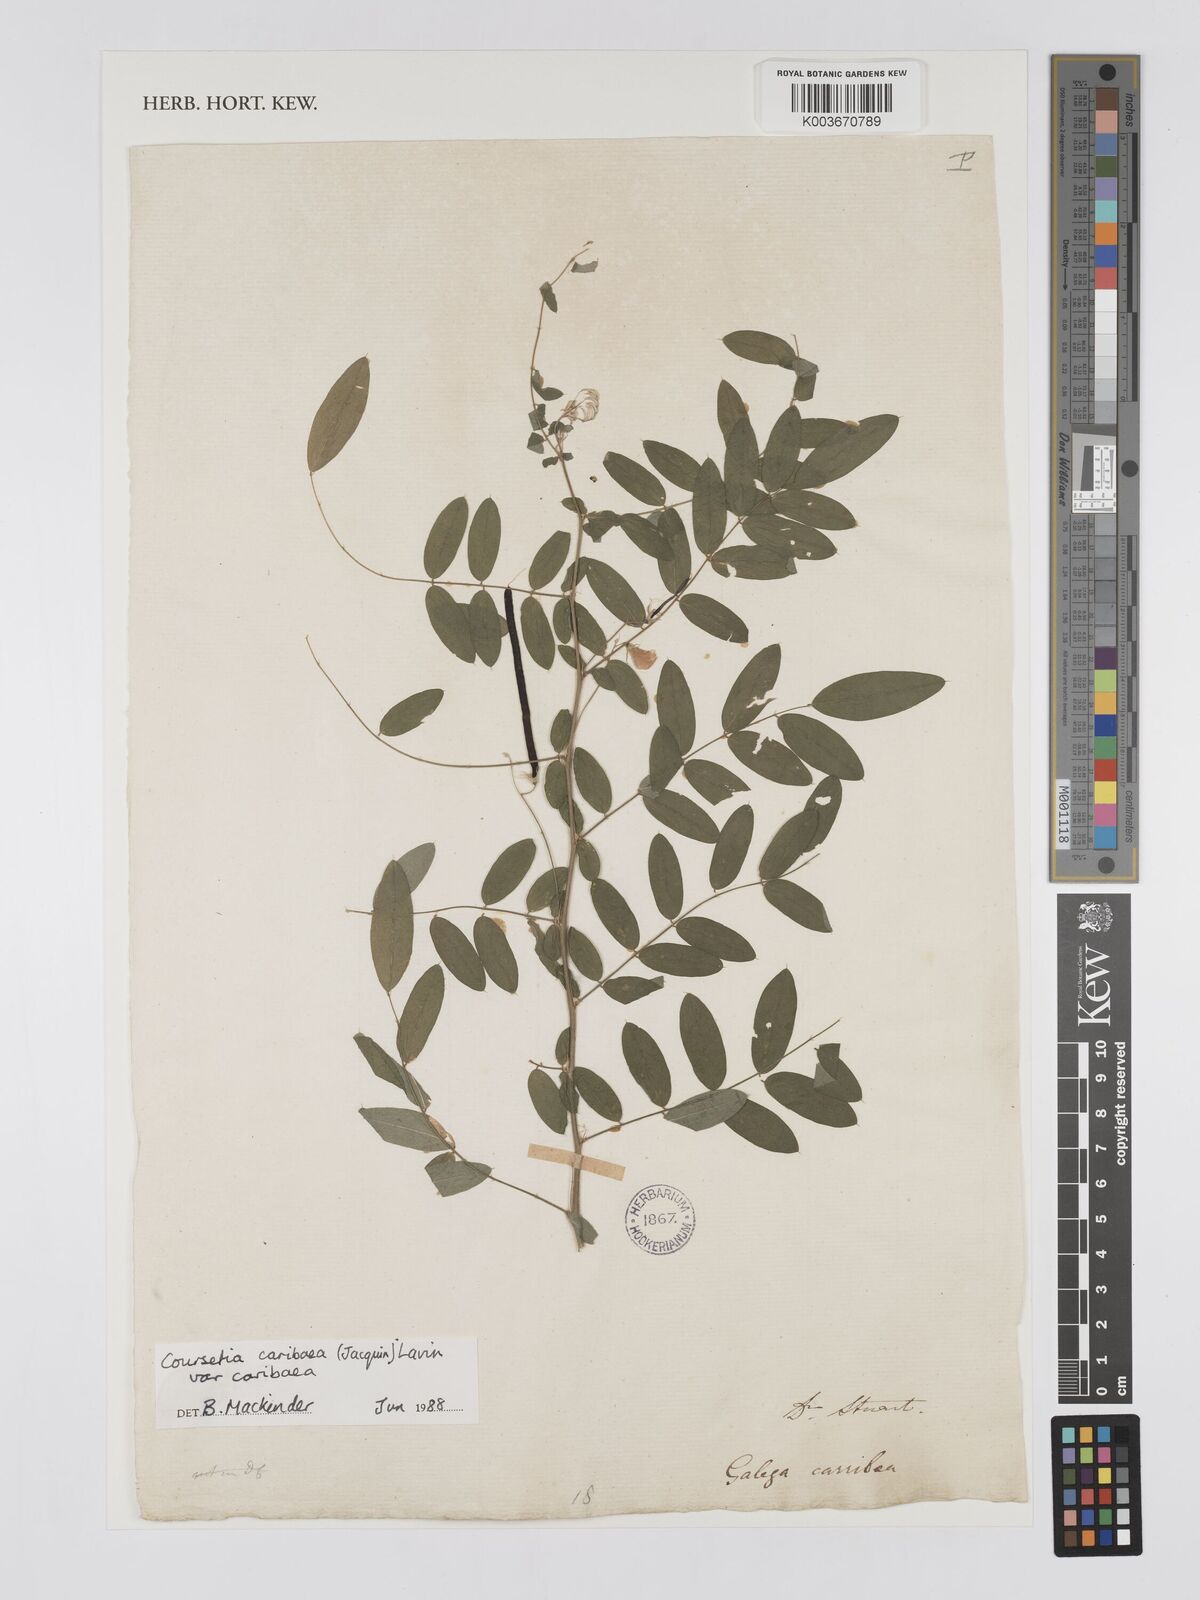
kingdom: Plantae
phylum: Tracheophyta
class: Magnoliopsida
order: Fabales
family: Fabaceae
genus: Coursetia
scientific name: Coursetia caribaea
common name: Anil falso
